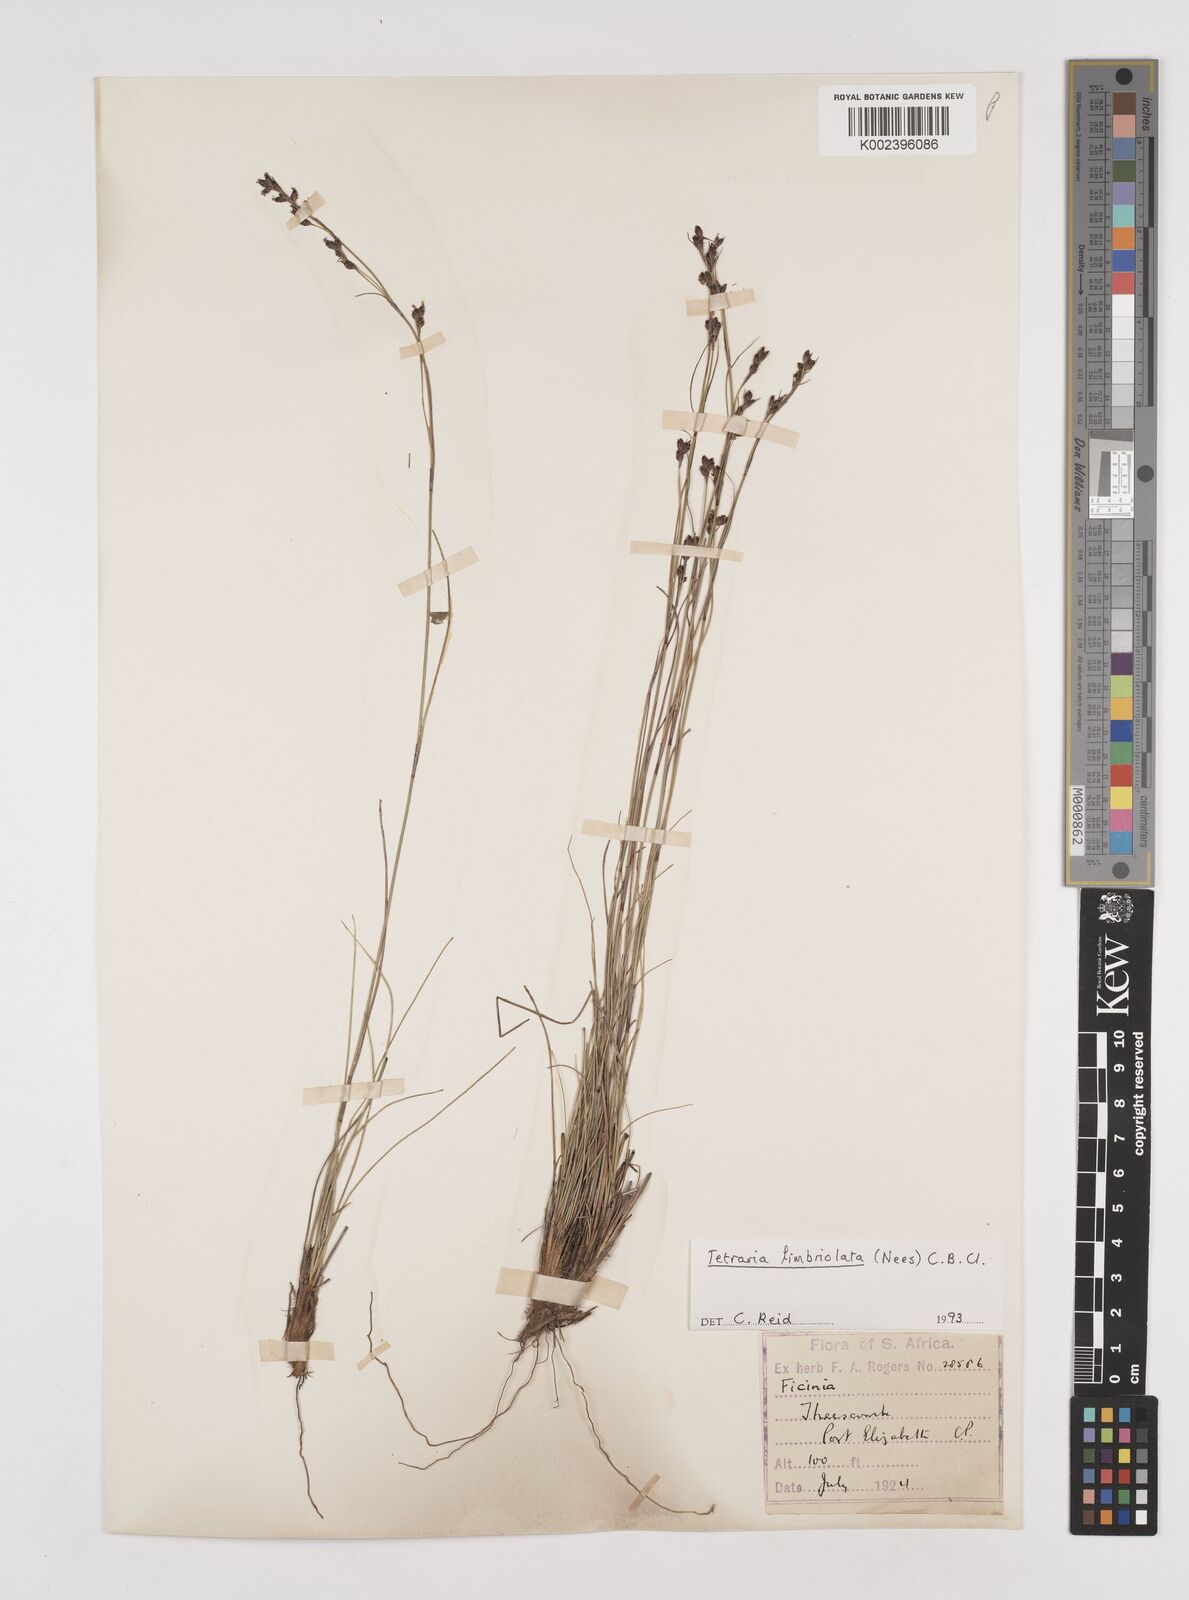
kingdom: Plantae
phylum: Tracheophyta
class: Liliopsida
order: Poales
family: Cyperaceae
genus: Tetraria
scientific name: Tetraria fimbriolata
